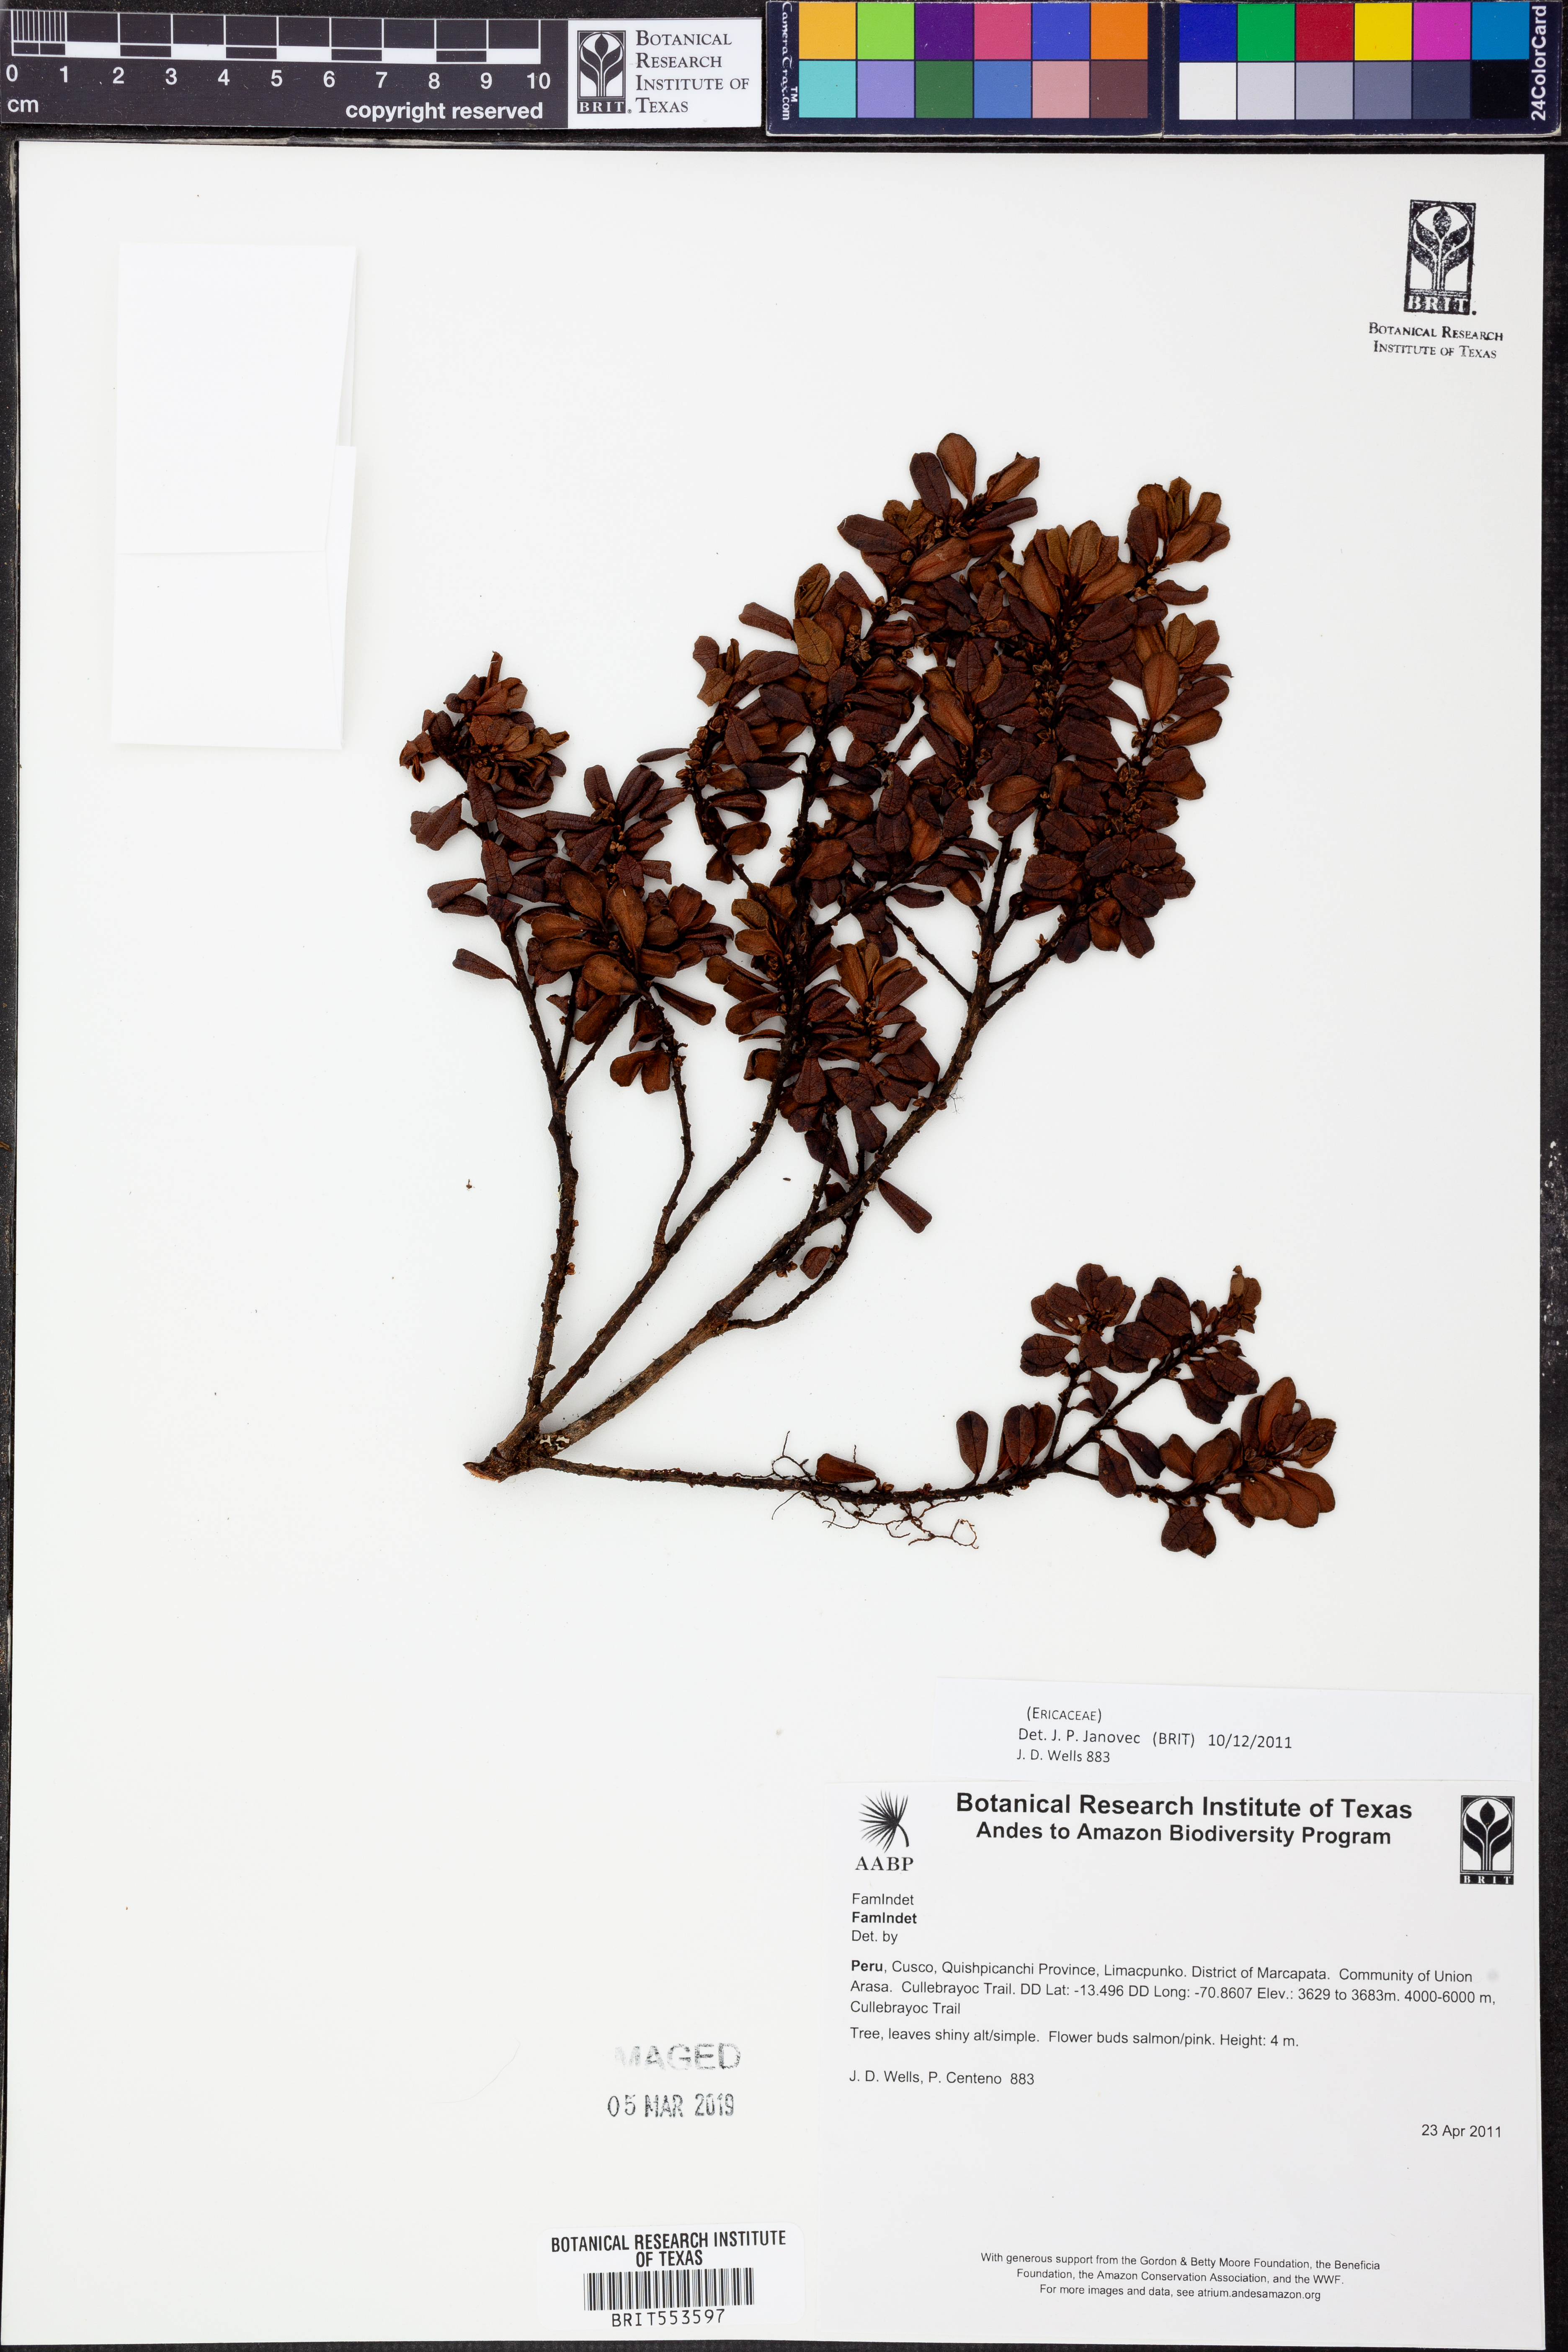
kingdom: Plantae
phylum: Tracheophyta
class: Magnoliopsida
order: Ericales
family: Ericaceae
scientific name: Ericaceae
